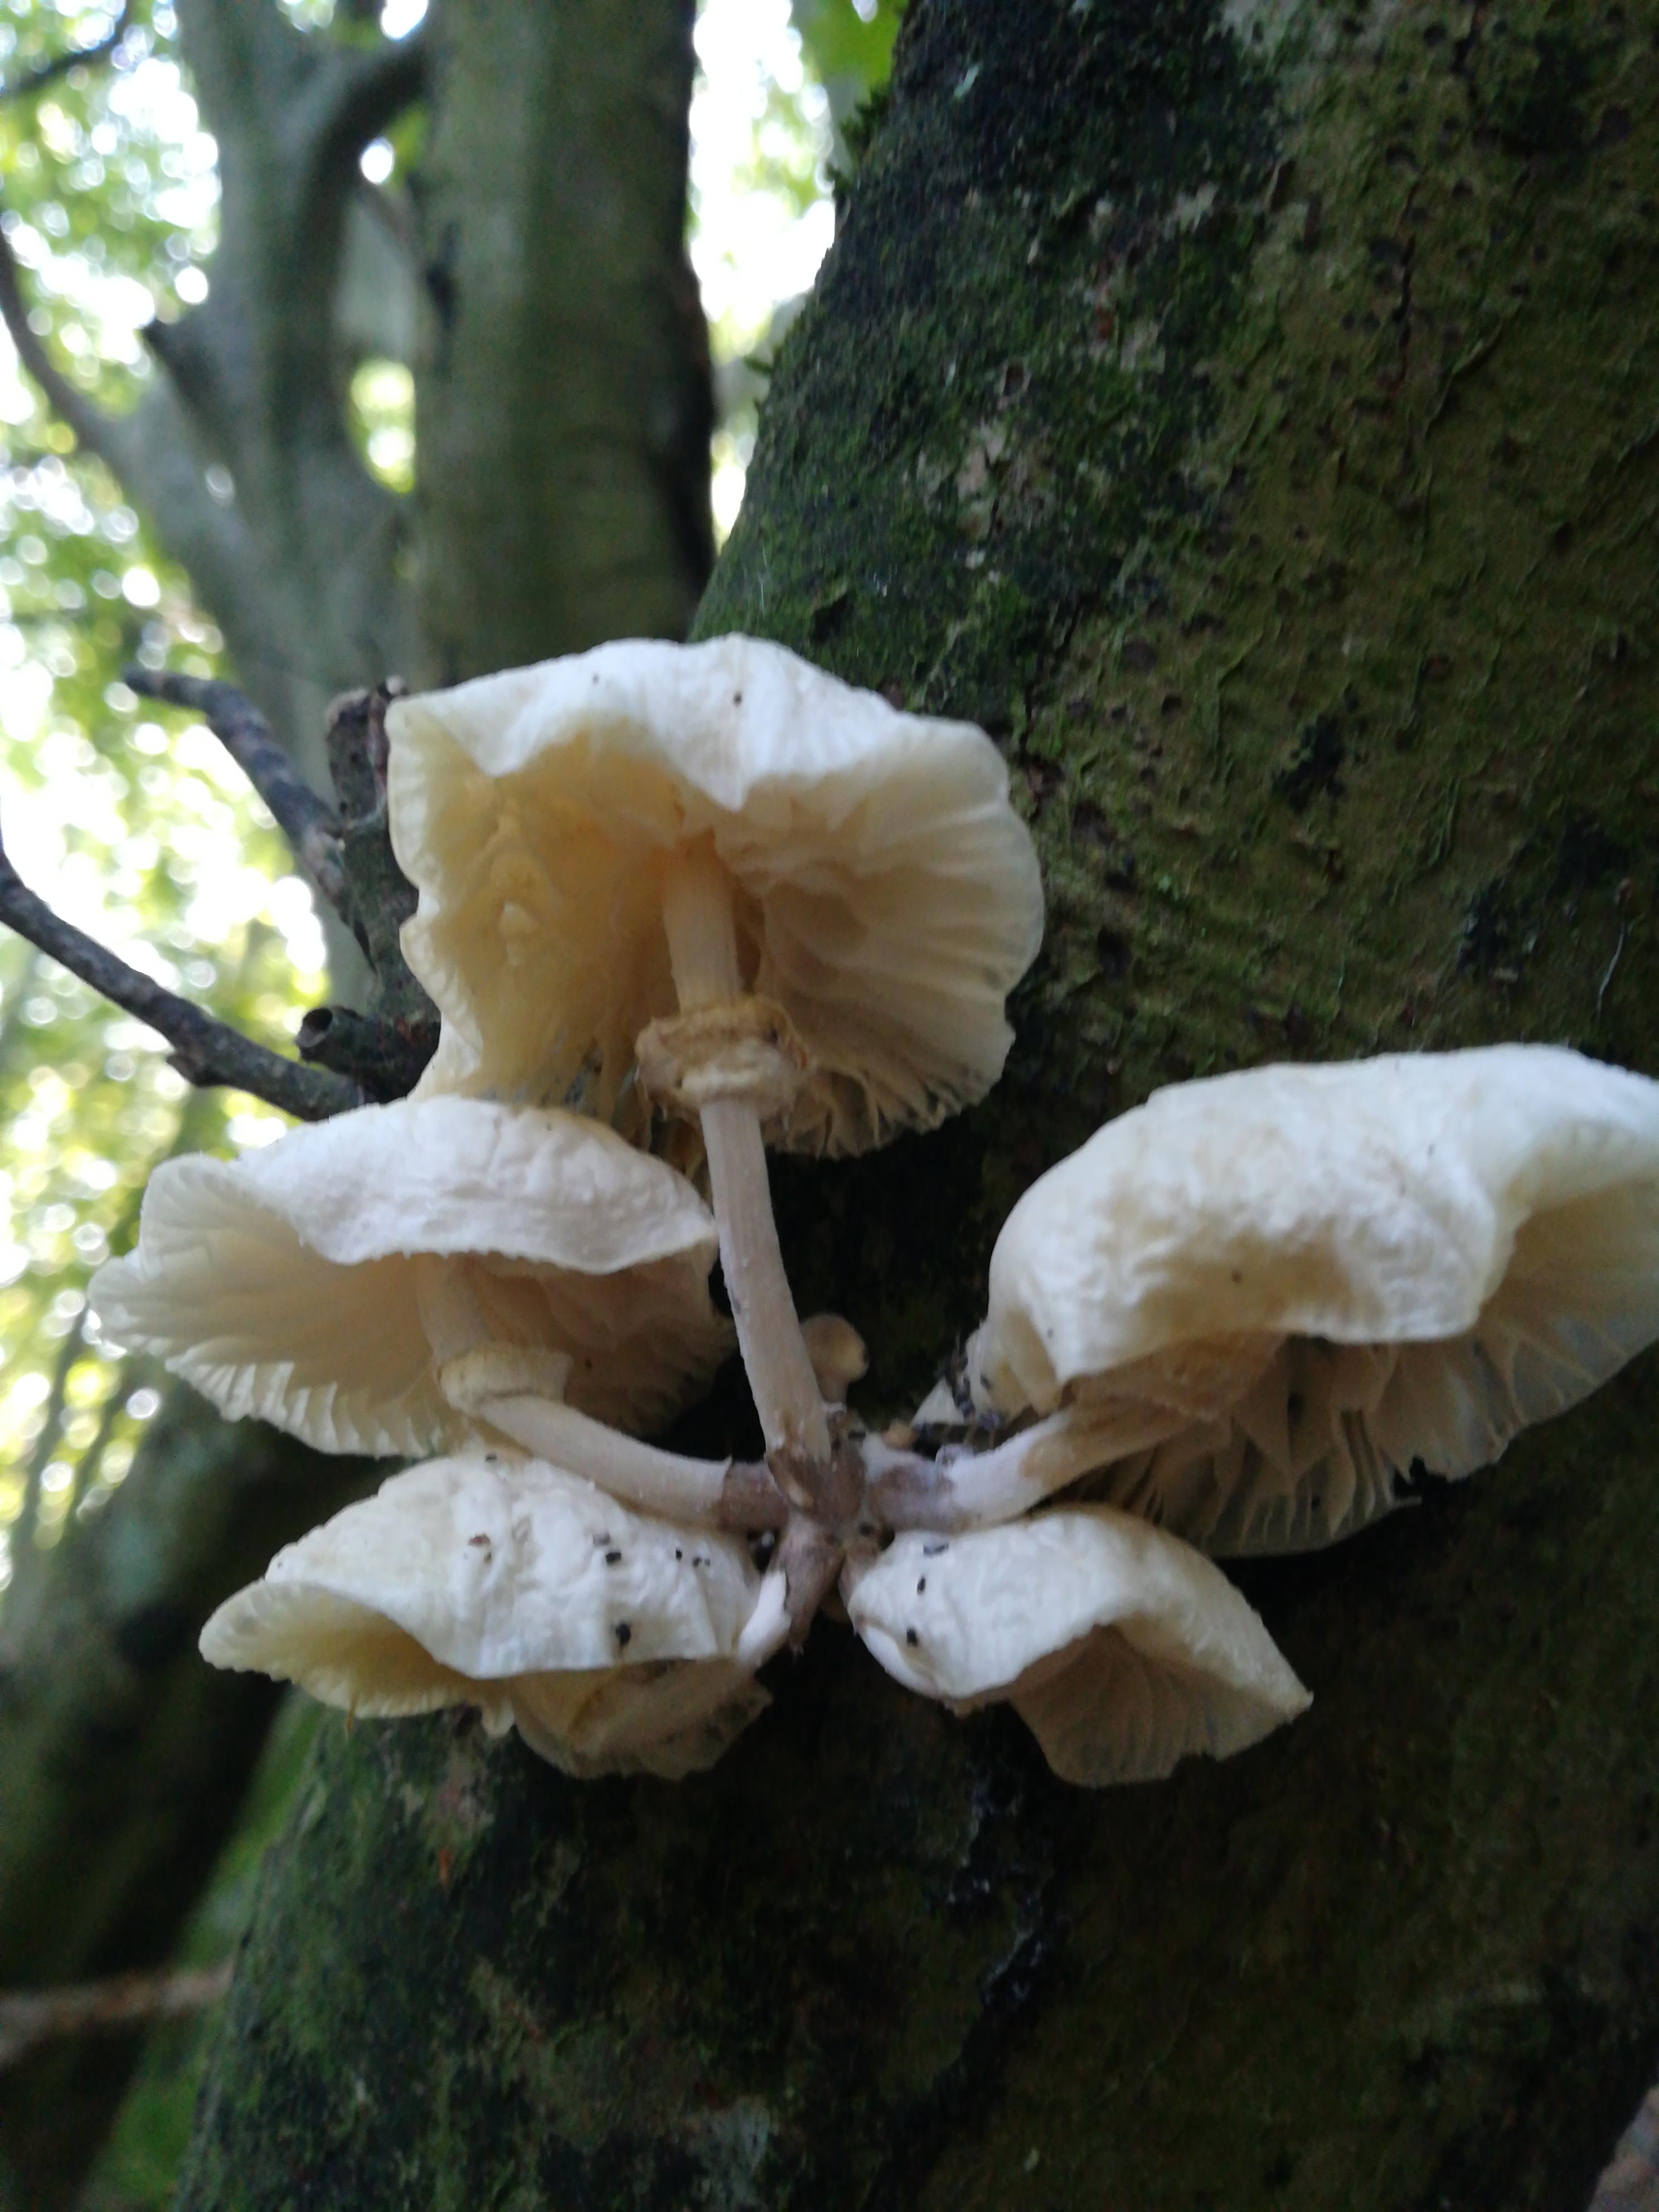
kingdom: Fungi
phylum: Basidiomycota
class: Agaricomycetes
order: Agaricales
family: Physalacriaceae
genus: Mucidula
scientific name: Mucidula mucida
